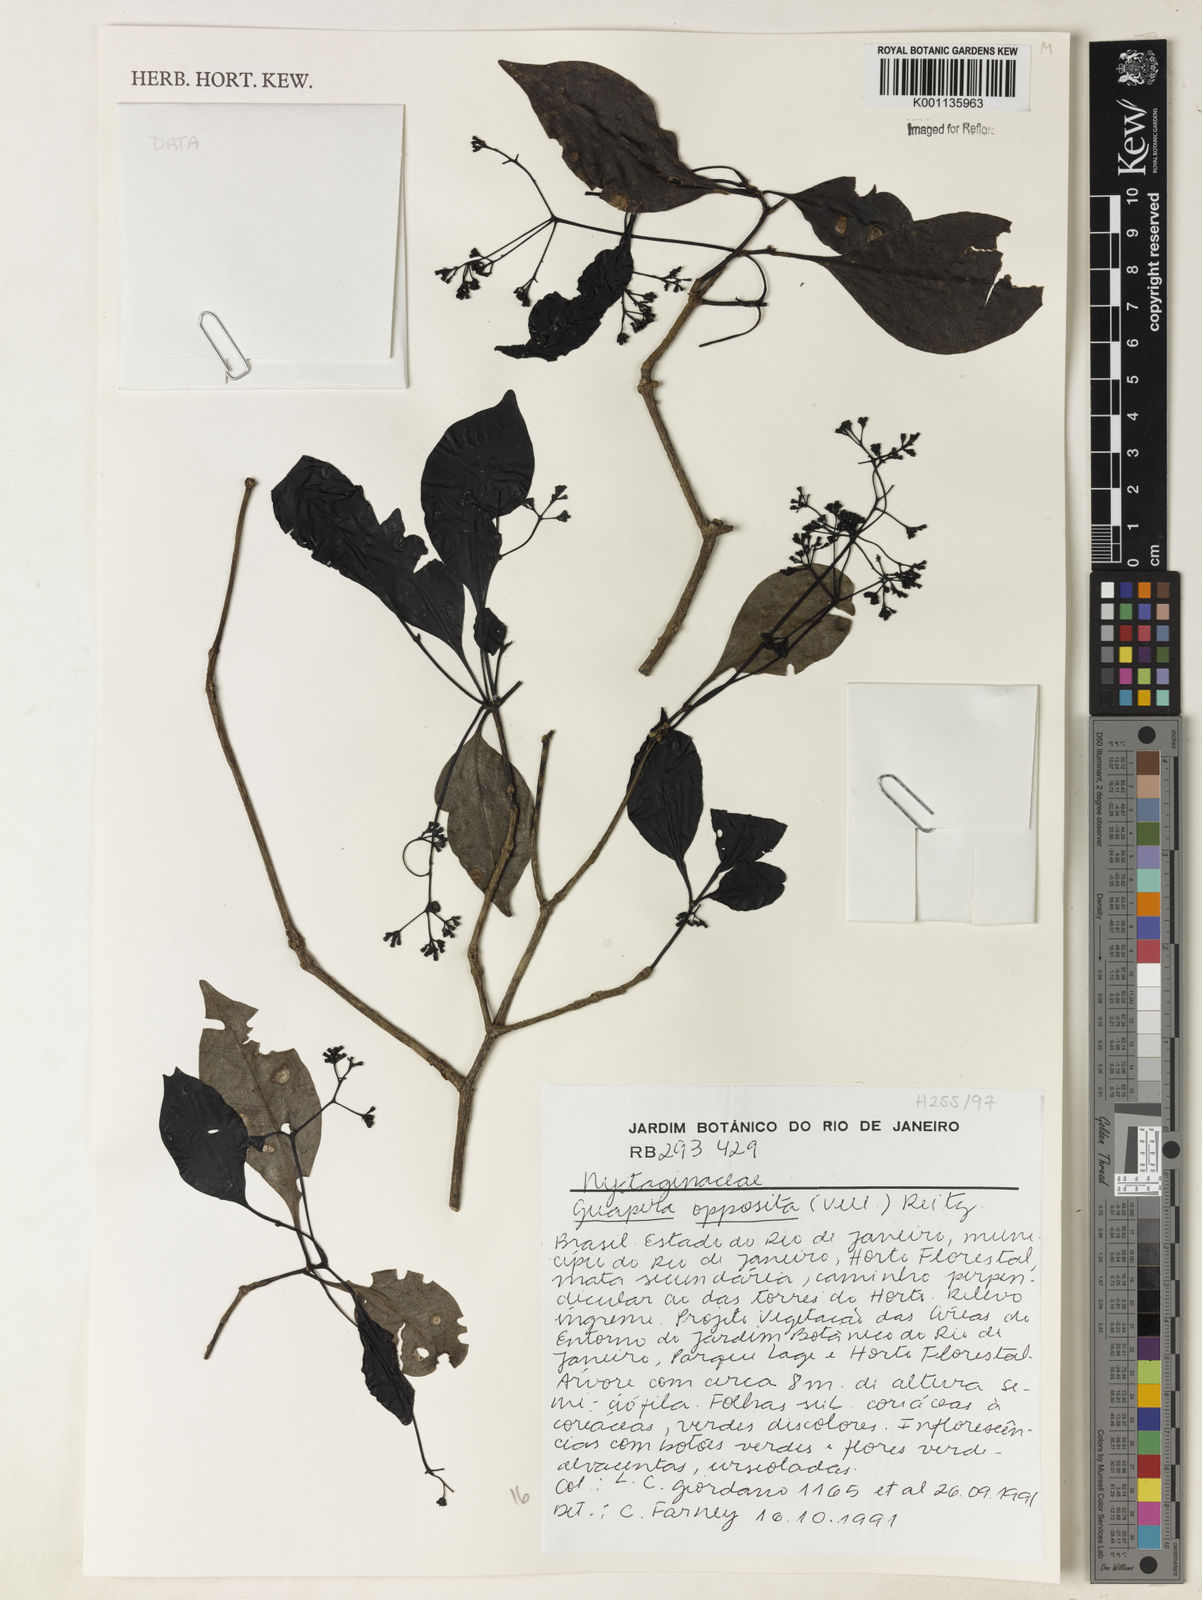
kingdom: Plantae
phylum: Tracheophyta
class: Magnoliopsida
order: Caryophyllales
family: Nyctaginaceae
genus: Guapira
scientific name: Guapira opposita
